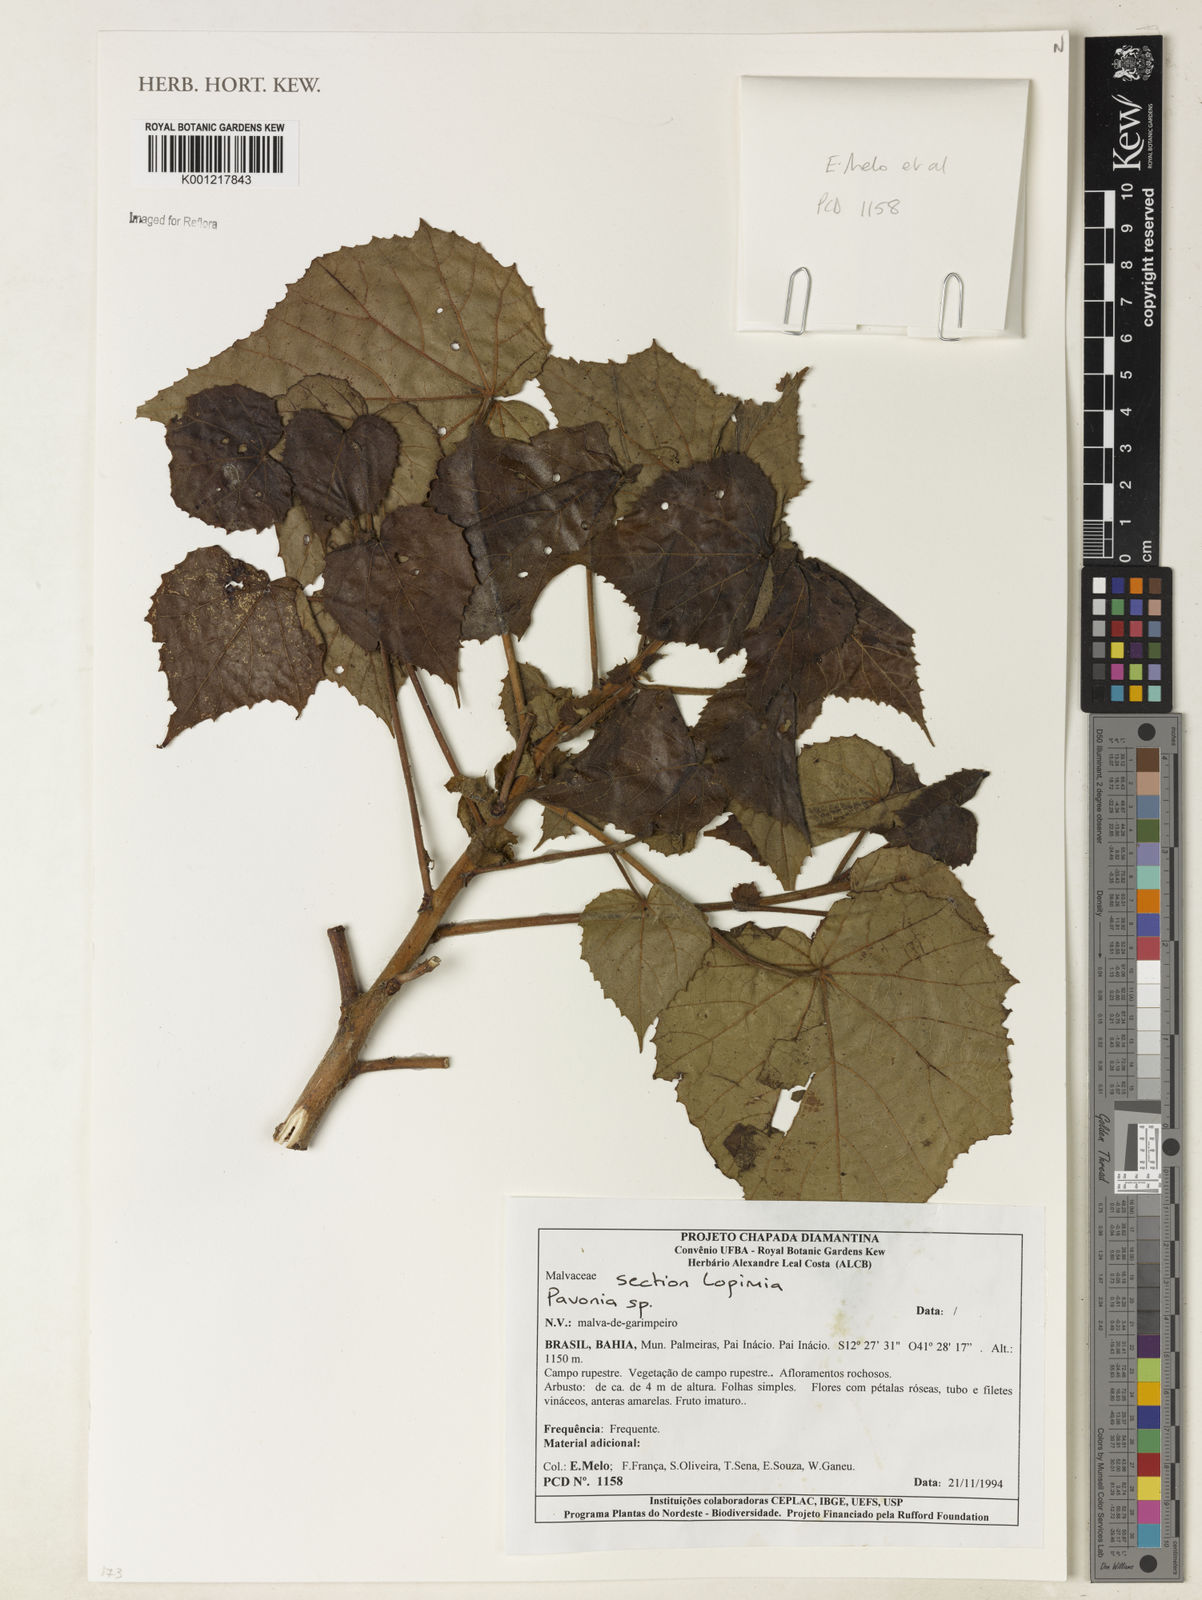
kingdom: Plantae
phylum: Tracheophyta
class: Magnoliopsida
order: Malvales
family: Malvaceae
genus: Pavonia
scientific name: Pavonia
